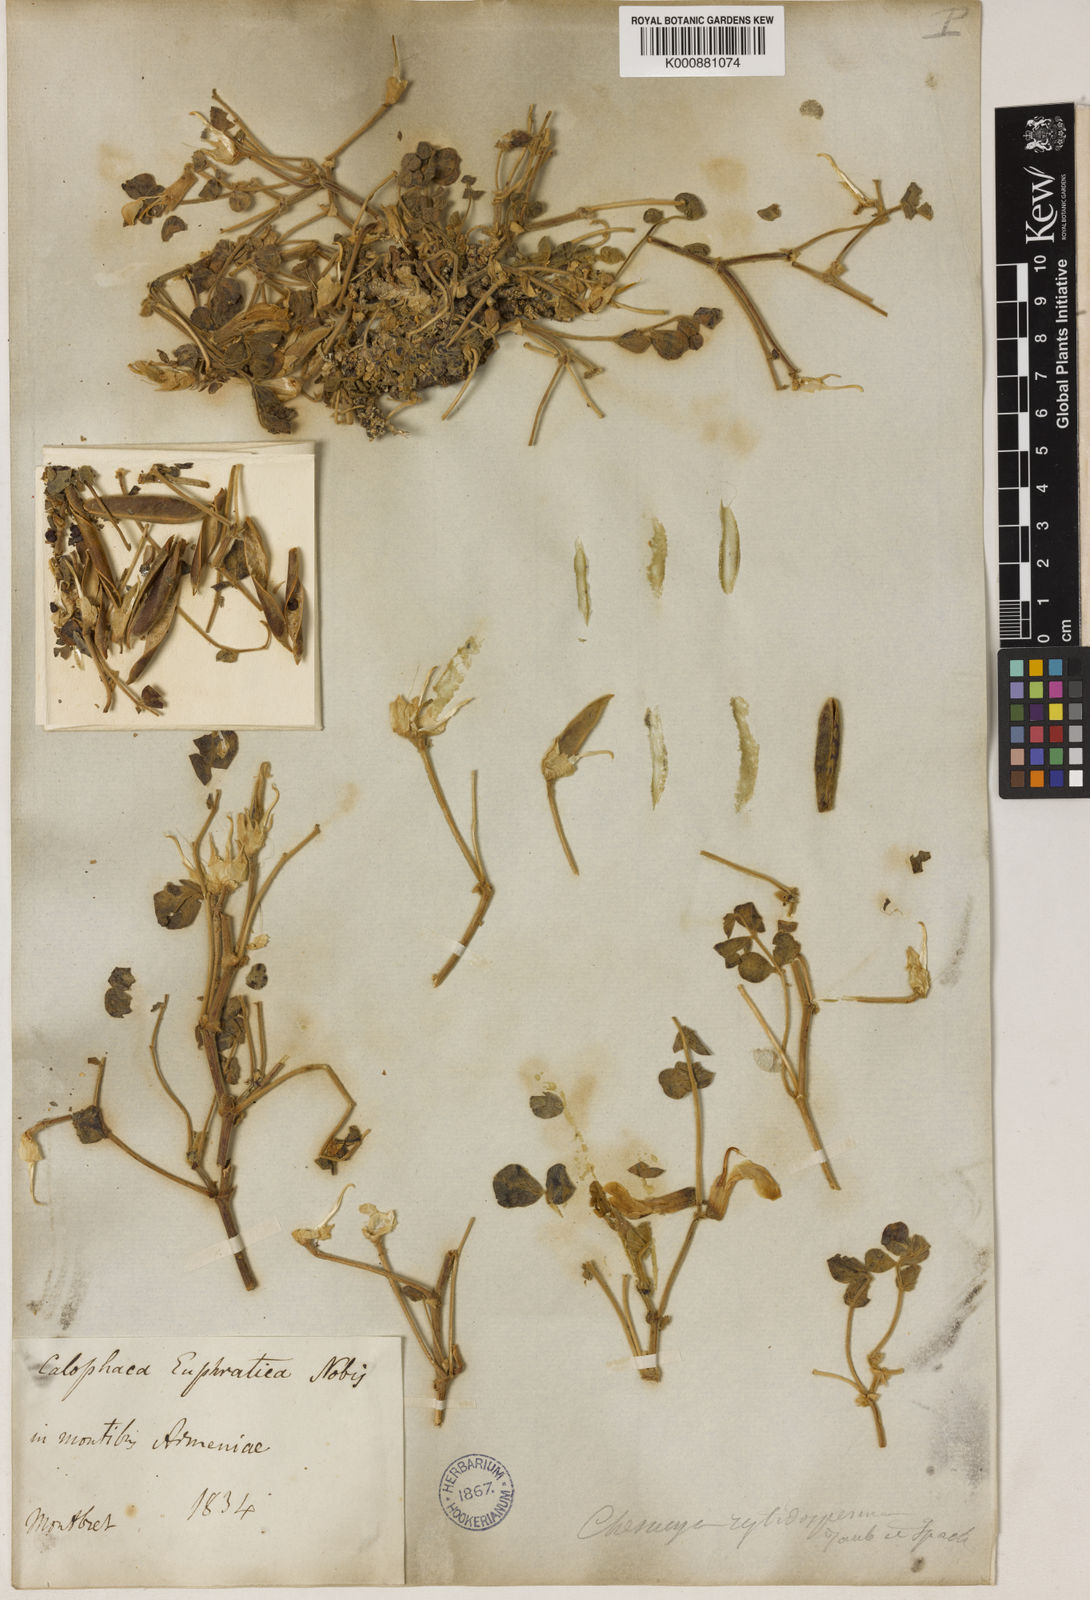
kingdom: Plantae
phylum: Tracheophyta
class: Magnoliopsida
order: Fabales
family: Fabaceae
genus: Chesneya
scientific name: Chesneya rytidosperma
